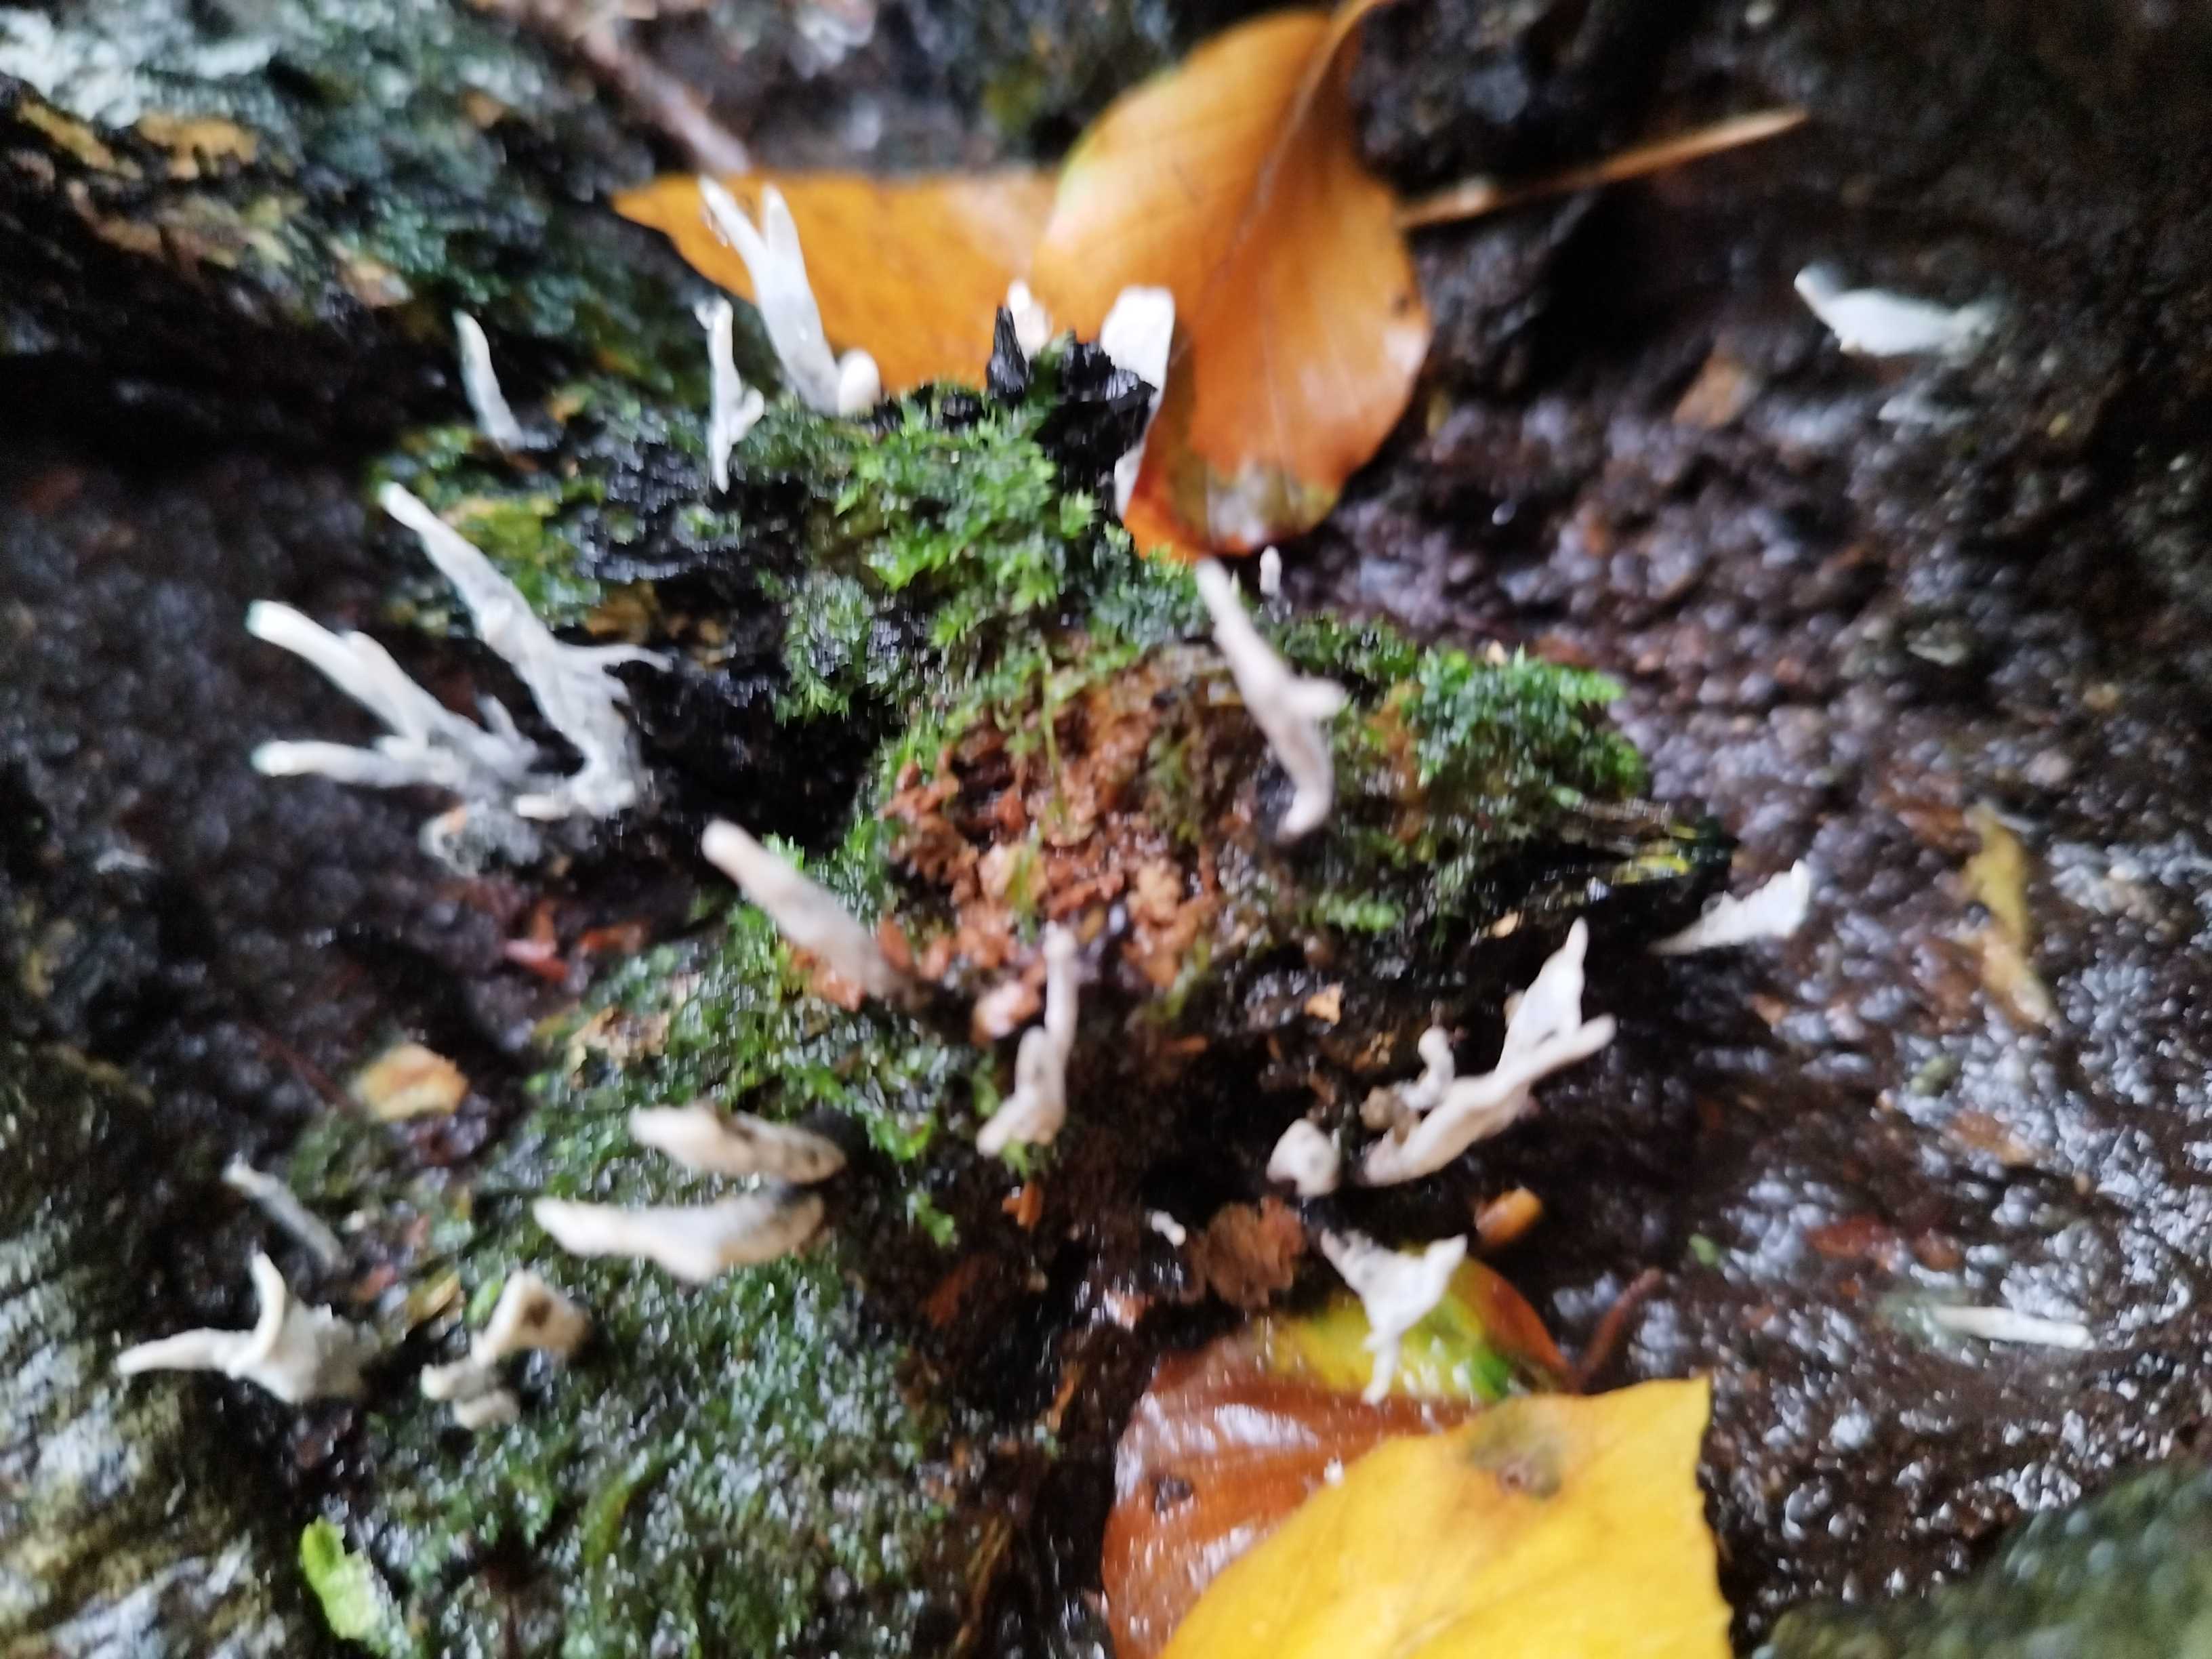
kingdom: Fungi
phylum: Ascomycota
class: Sordariomycetes
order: Xylariales
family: Xylariaceae
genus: Xylaria
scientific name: Xylaria hypoxylon
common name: grenet stødsvamp
